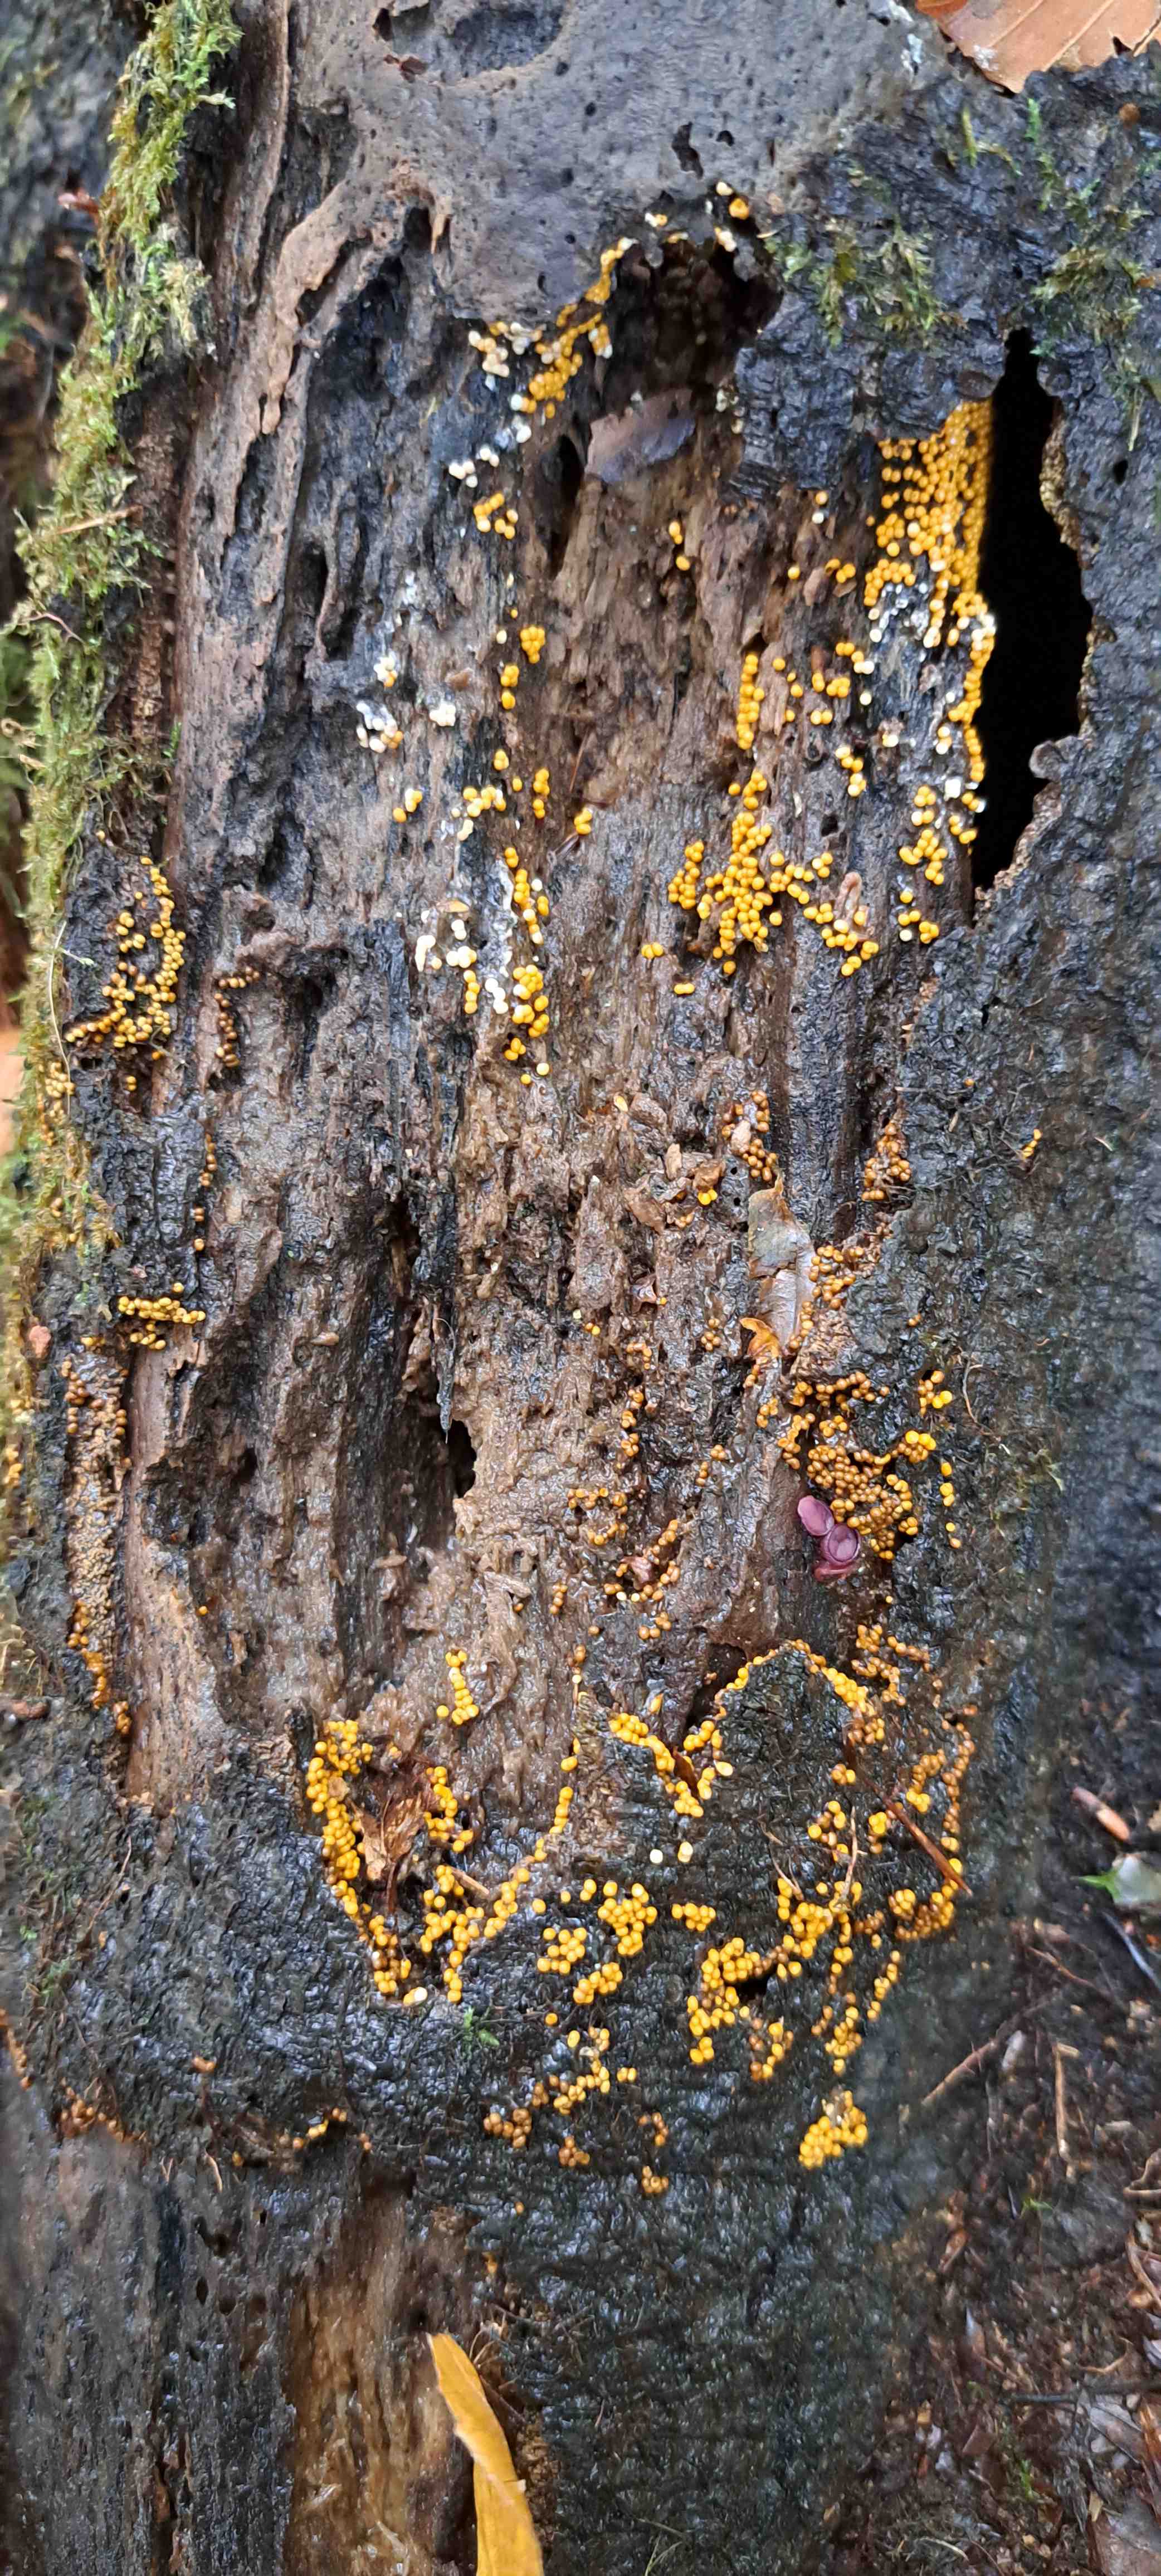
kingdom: Protozoa
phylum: Mycetozoa
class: Myxomycetes
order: Trichiales
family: Trichiaceae
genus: Trichia
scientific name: Trichia
